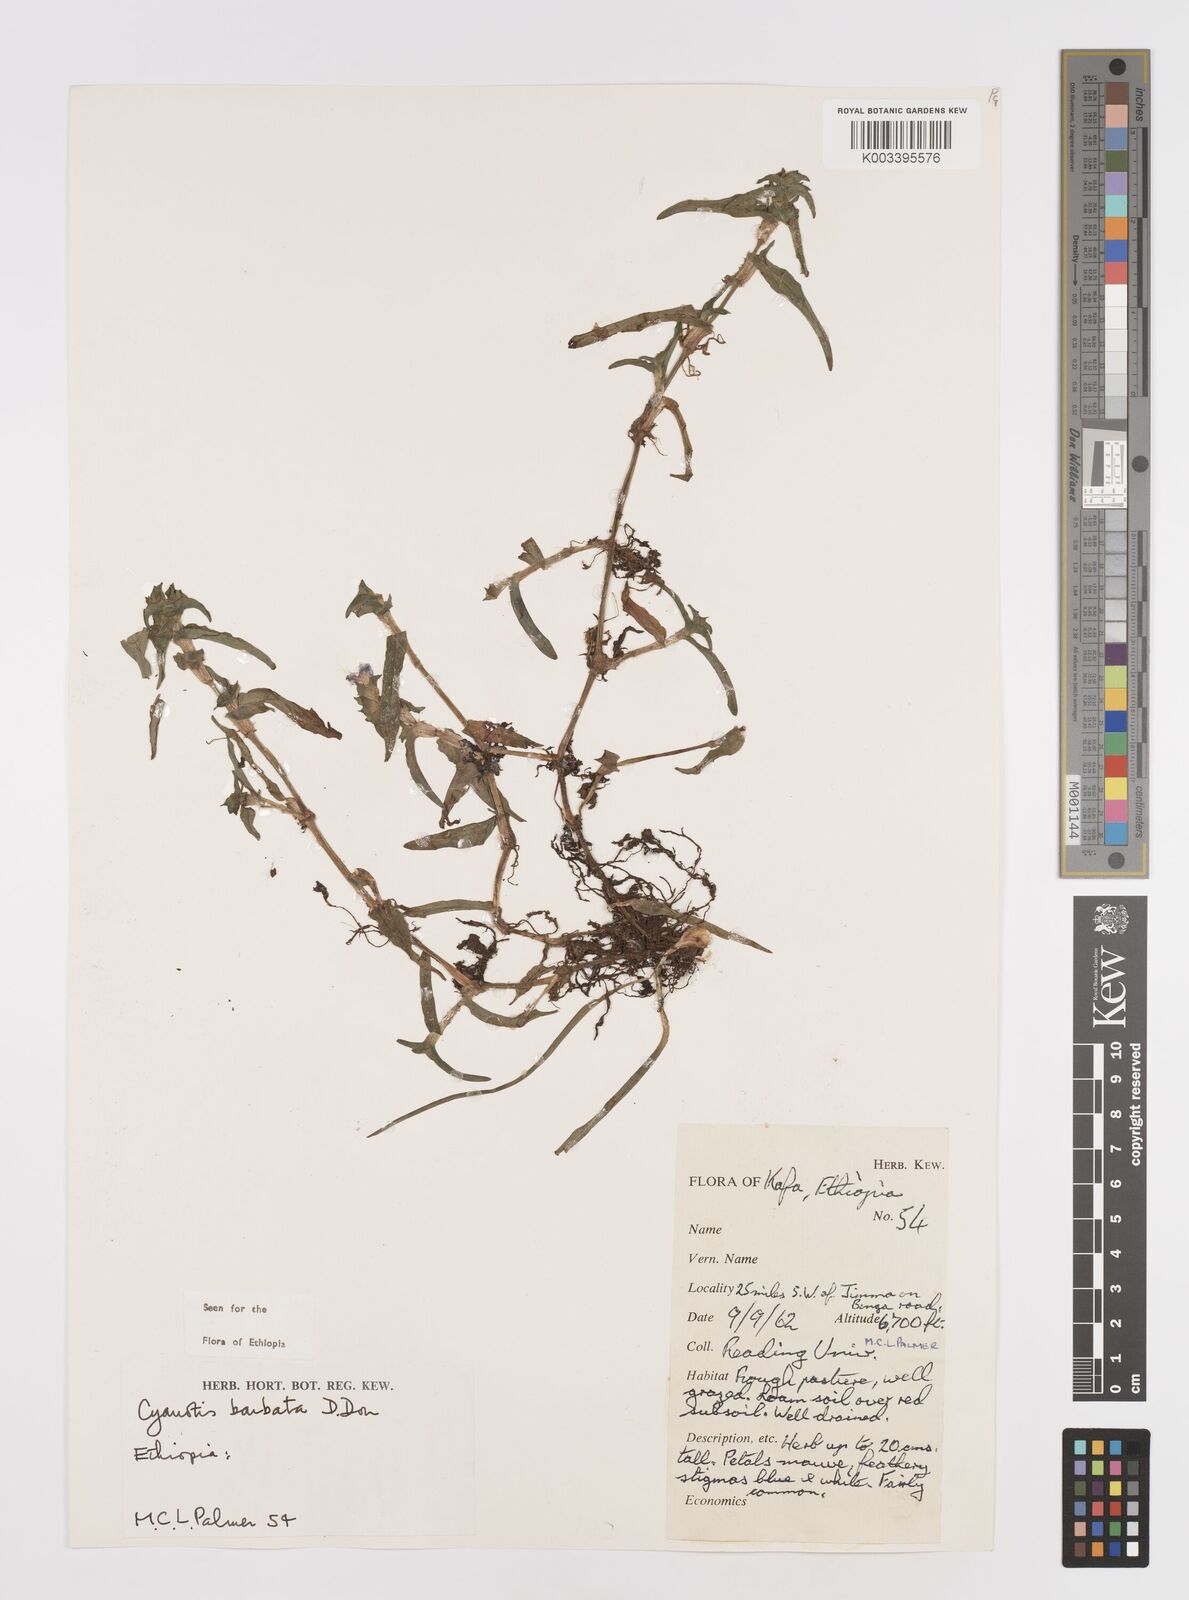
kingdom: Plantae
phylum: Tracheophyta
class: Liliopsida
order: Commelinales
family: Commelinaceae
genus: Cyanotis
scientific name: Cyanotis vaga
